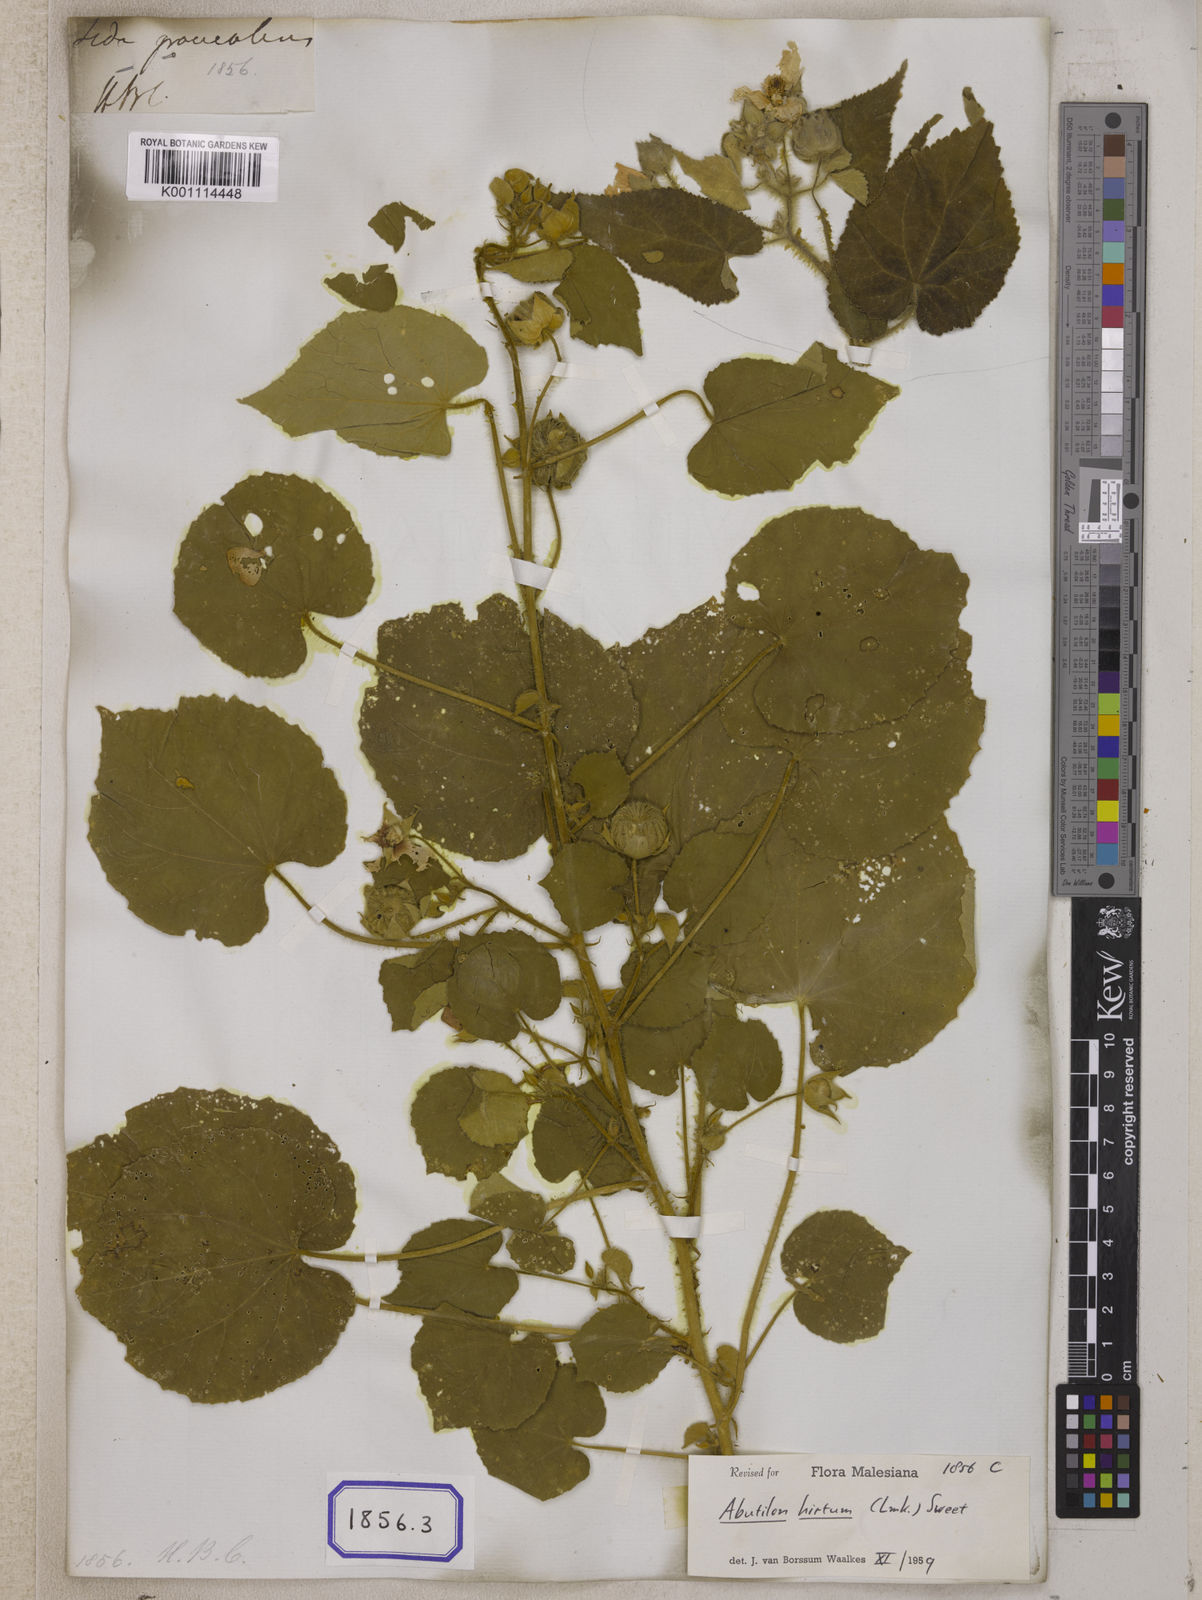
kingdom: Plantae
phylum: Tracheophyta
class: Magnoliopsida
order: Malvales
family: Malvaceae
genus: Sida
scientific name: Sida
